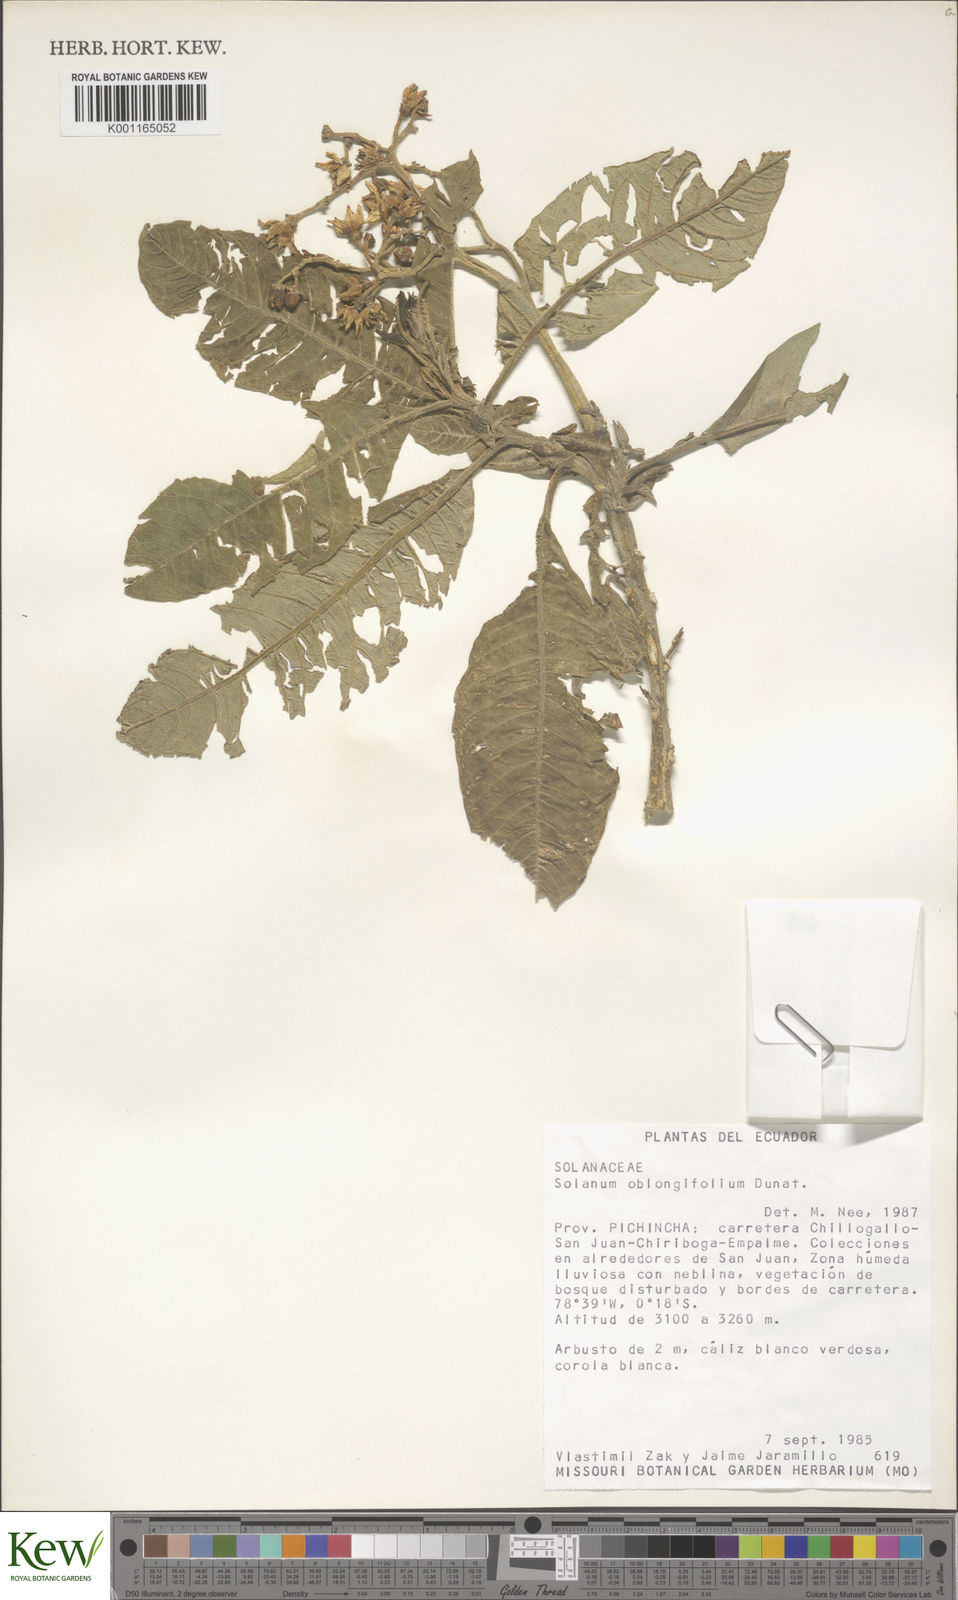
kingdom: Plantae
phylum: Tracheophyta
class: Magnoliopsida
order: Solanales
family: Solanaceae
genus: Solanum
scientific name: Solanum oblongifolium
